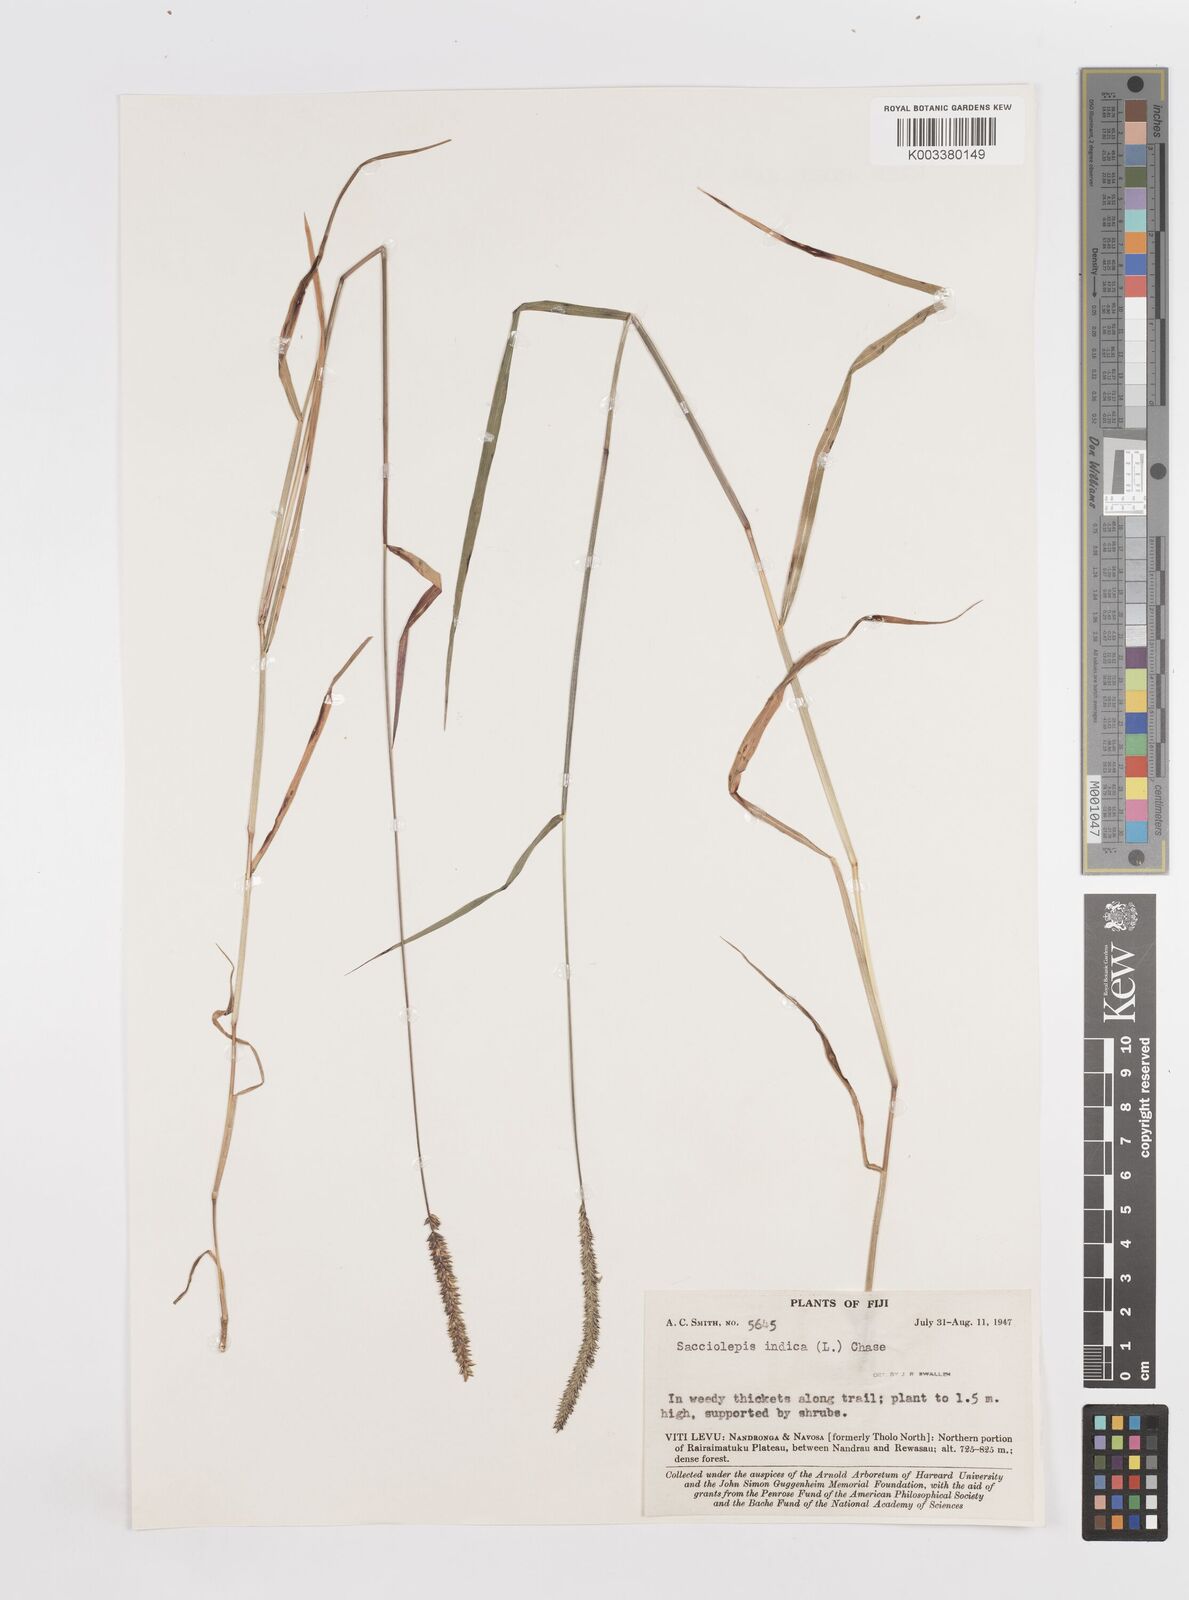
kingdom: Plantae
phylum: Tracheophyta
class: Liliopsida
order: Poales
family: Poaceae
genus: Sacciolepis
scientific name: Sacciolepis indica
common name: Glenwoodgrass
